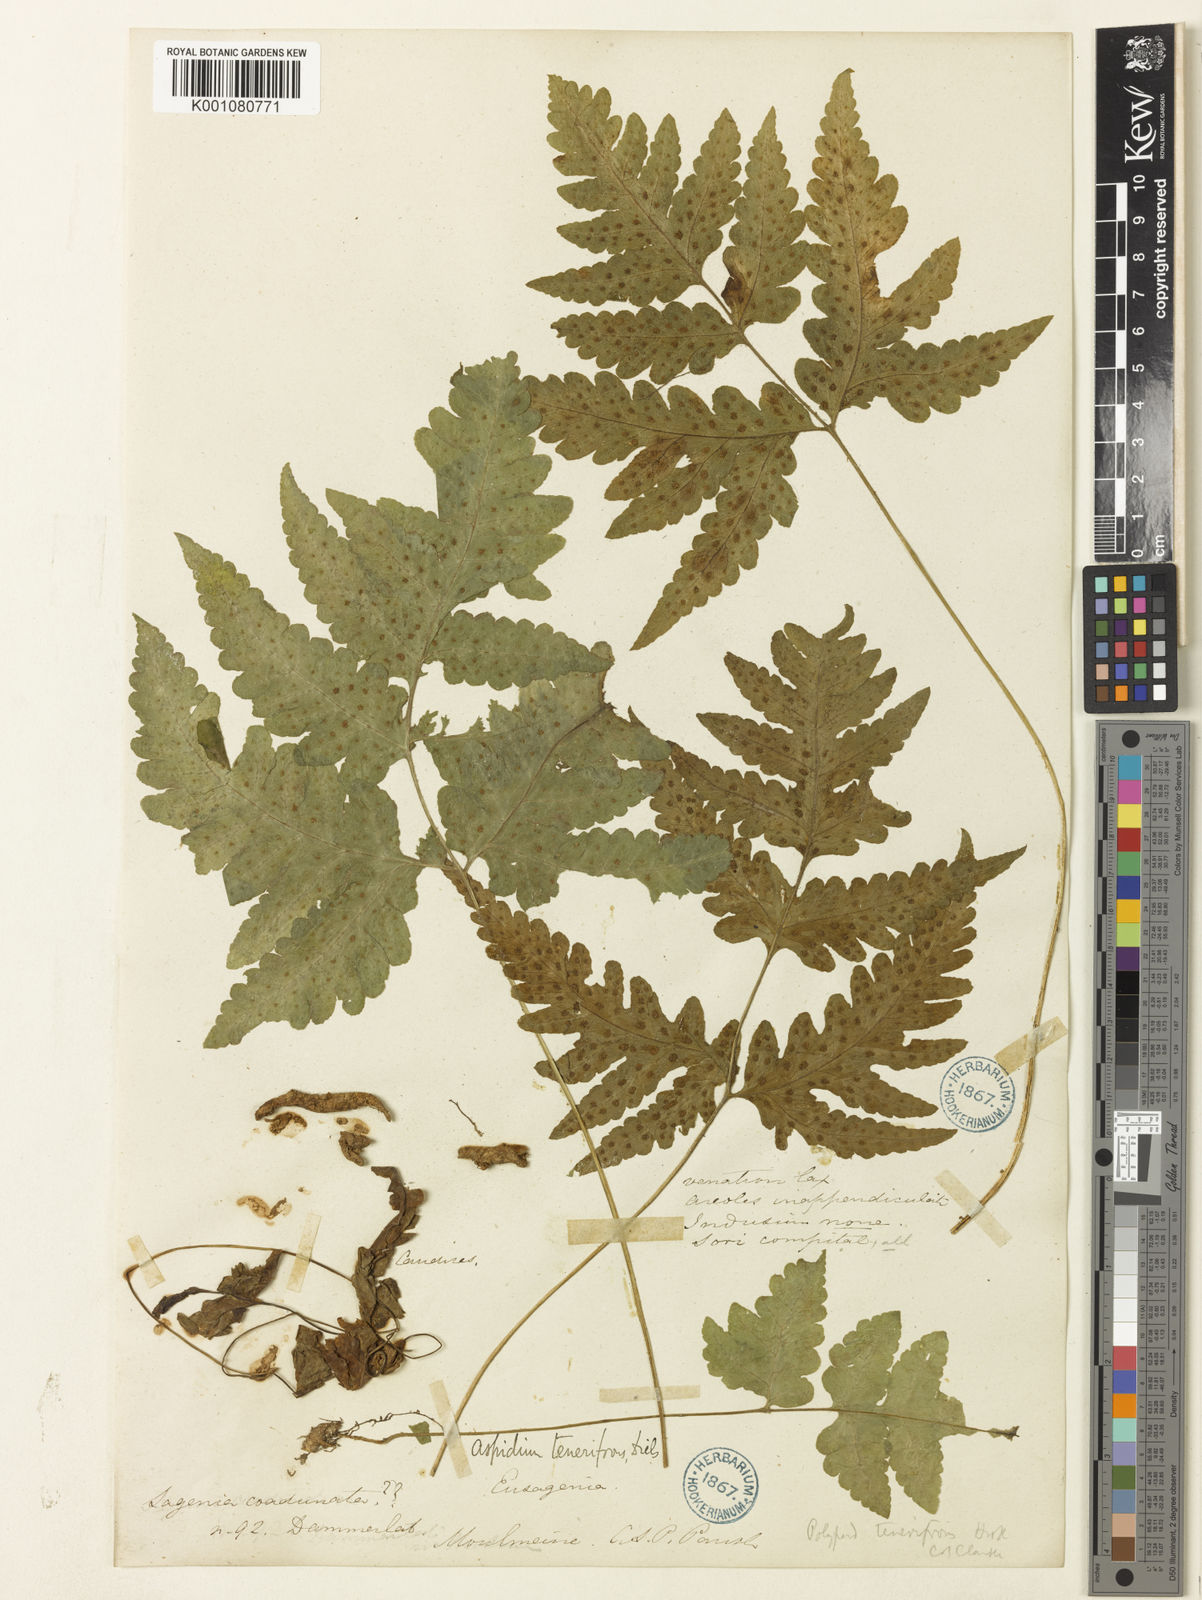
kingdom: Plantae
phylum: Tracheophyta
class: Polypodiopsida
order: Polypodiales
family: Tectariaceae
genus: Tectaria
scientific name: Tectaria tenerifrons
